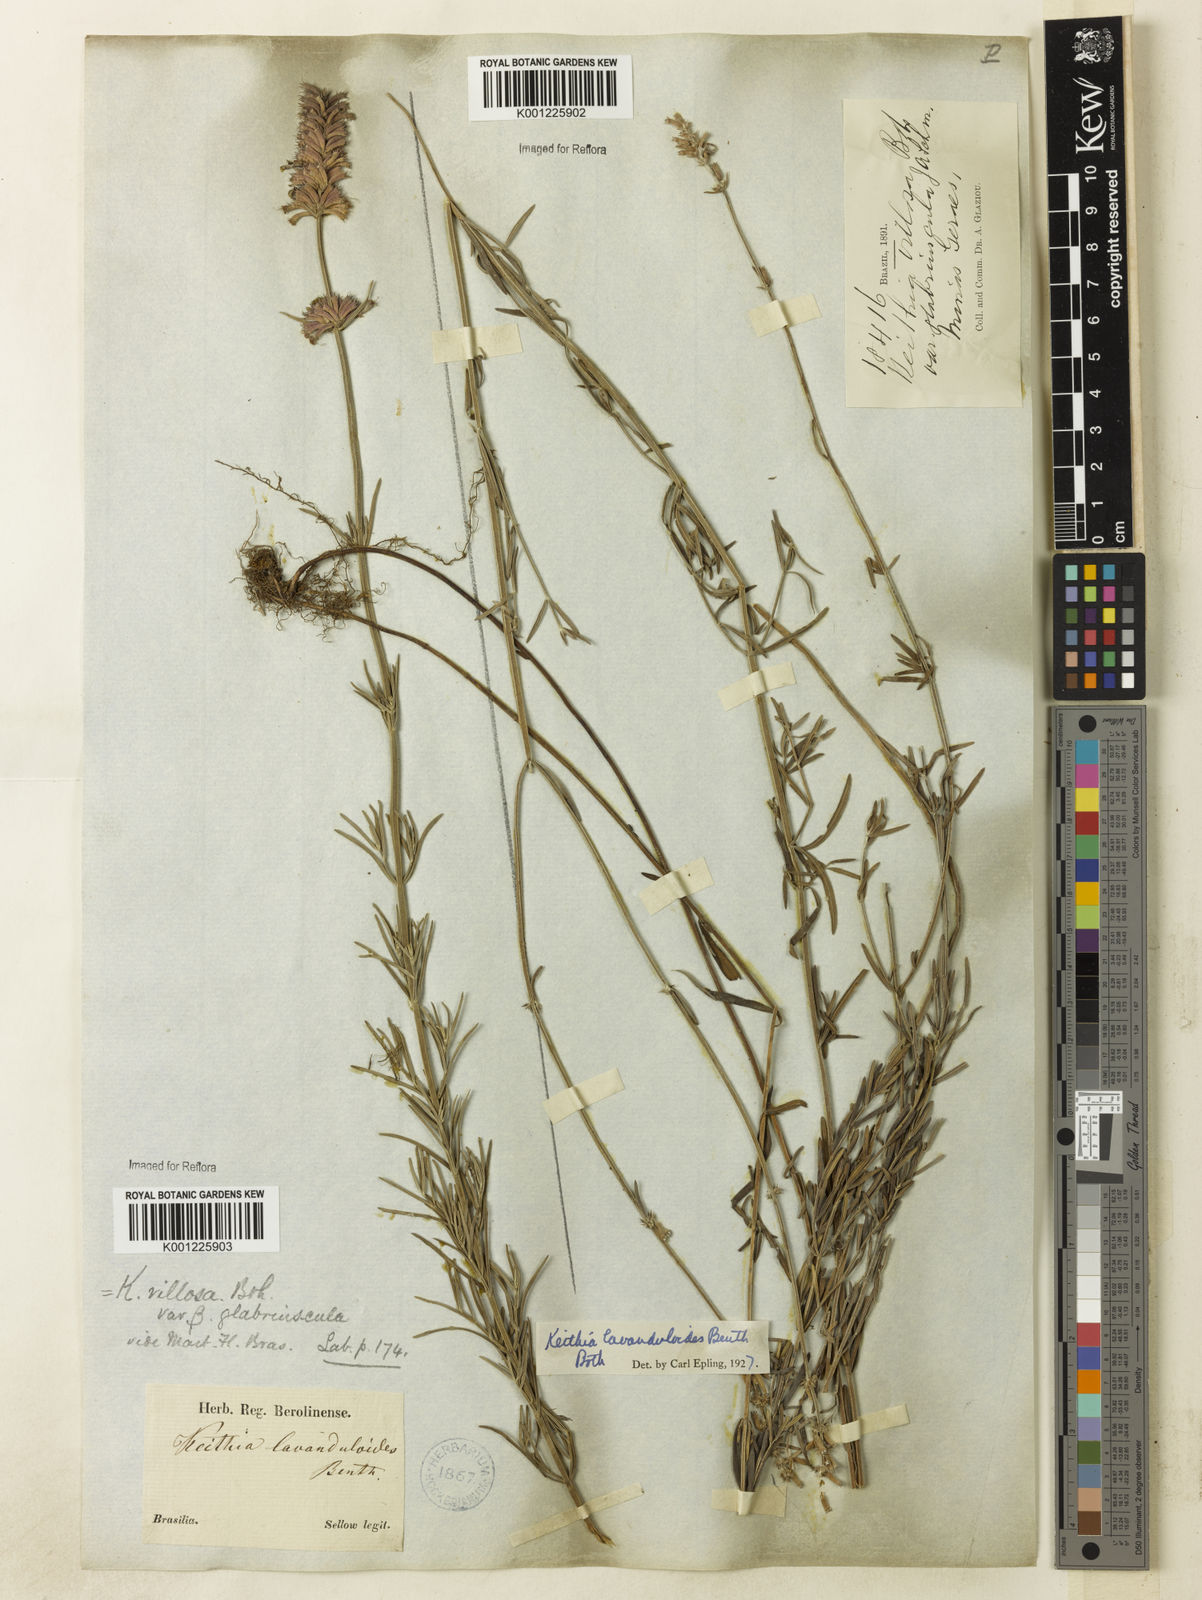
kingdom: Plantae
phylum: Tracheophyta
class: Magnoliopsida
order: Lamiales
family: Lamiaceae
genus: Rhabdocaulon
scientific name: Rhabdocaulon lavanduloides
